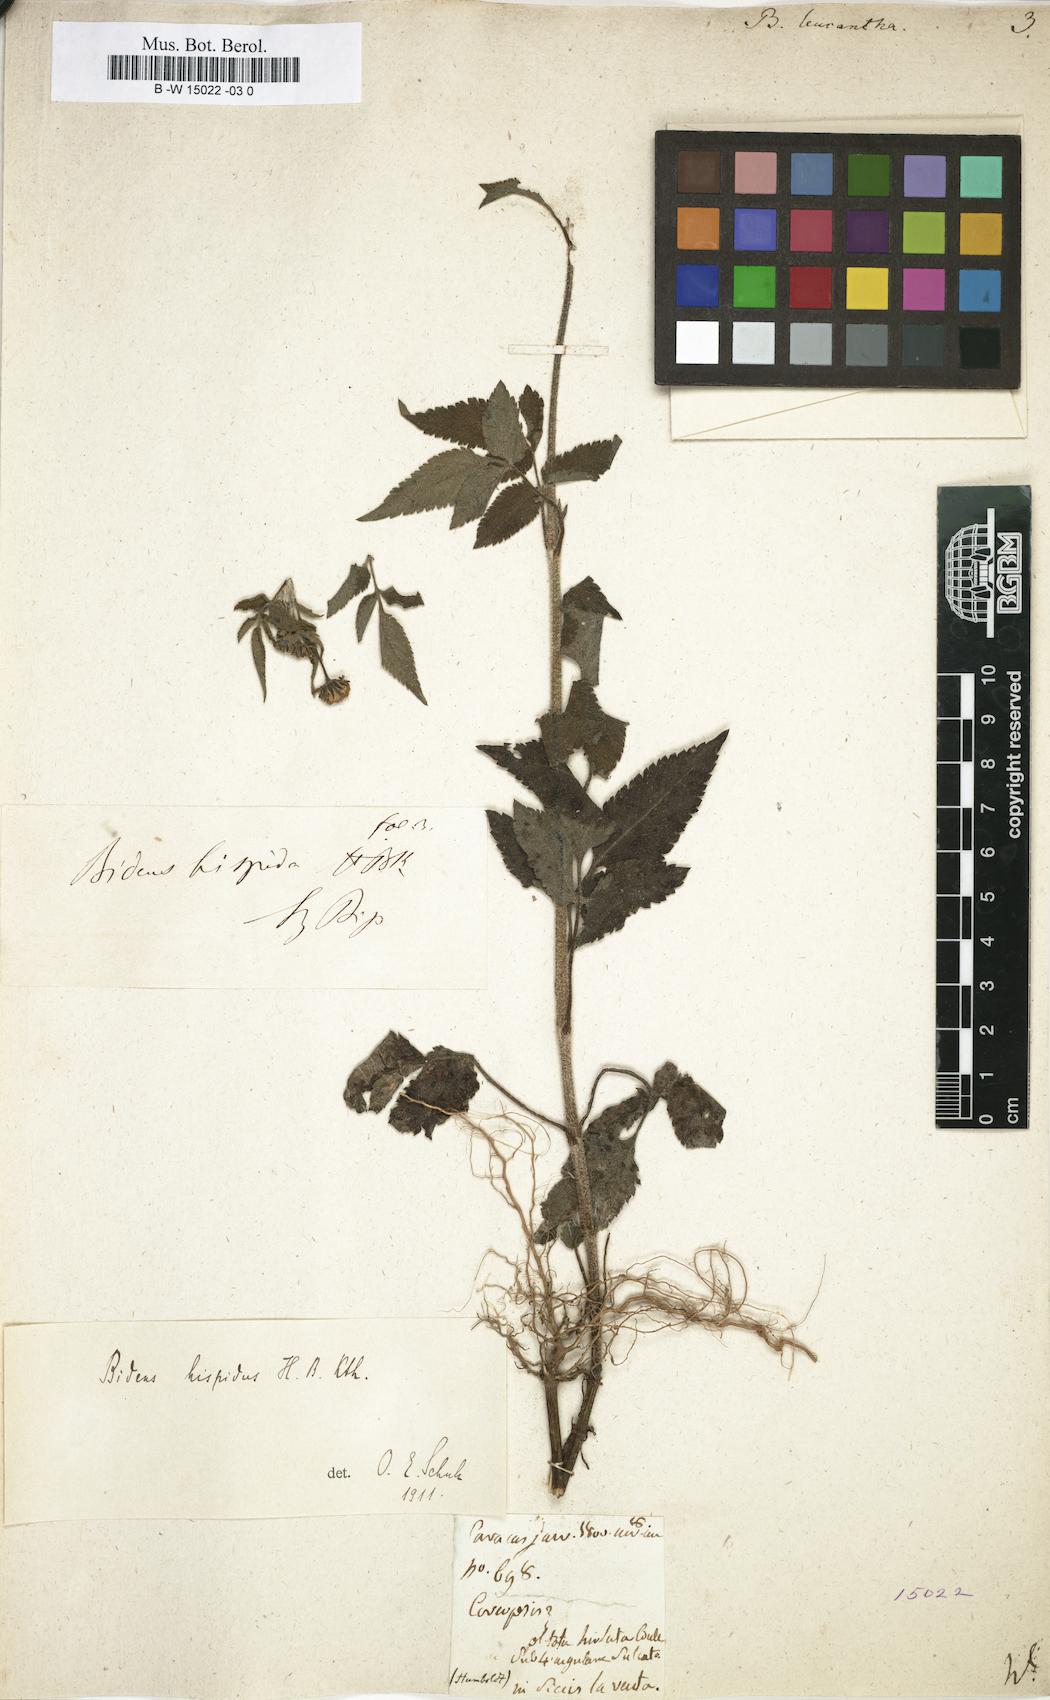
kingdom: Plantae
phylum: Tracheophyta
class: Magnoliopsida
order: Asterales
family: Asteraceae
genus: Bidens
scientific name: Bidens pilosa
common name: Black-jack
